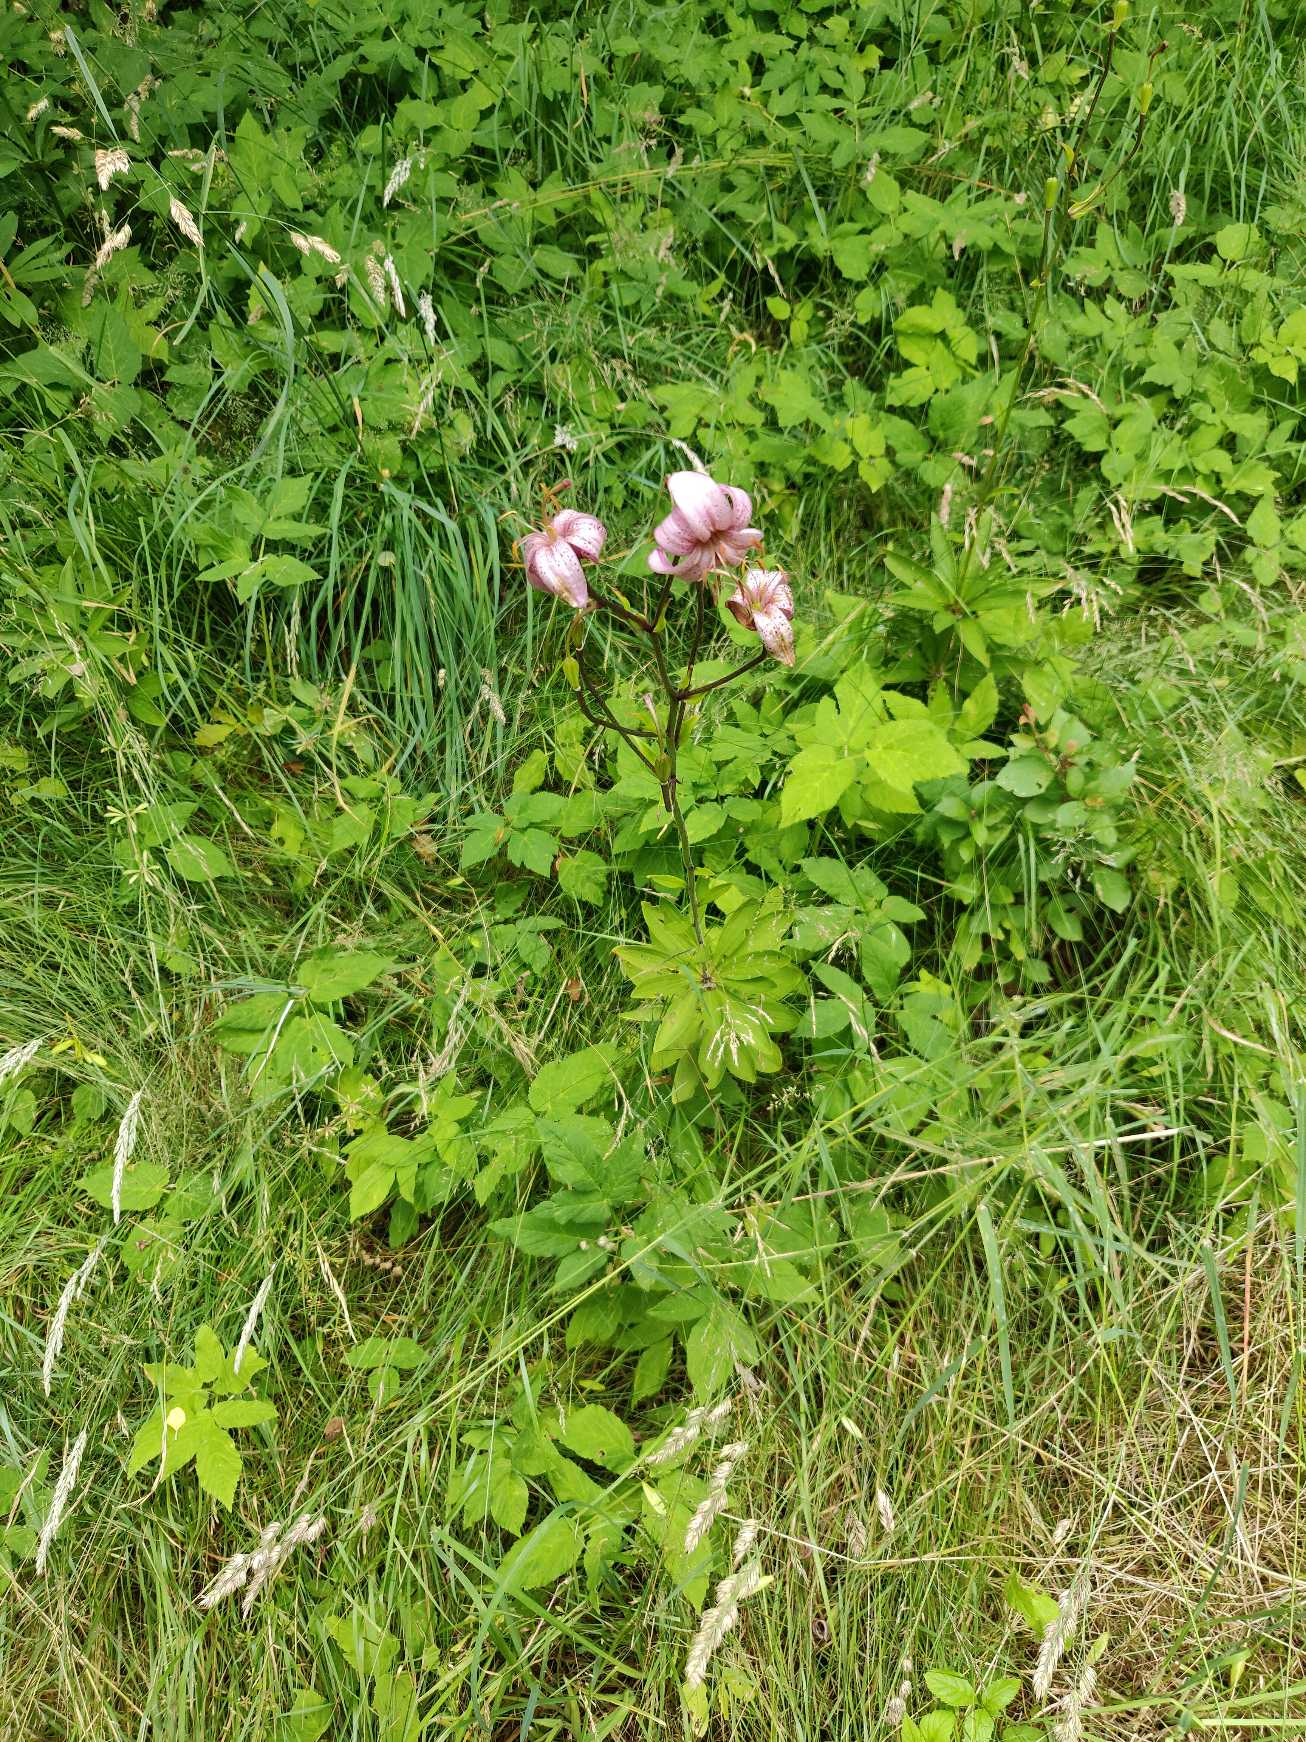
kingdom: Plantae
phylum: Tracheophyta
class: Liliopsida
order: Liliales
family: Liliaceae
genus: Lilium
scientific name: Lilium martagon
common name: Krans-lilje
